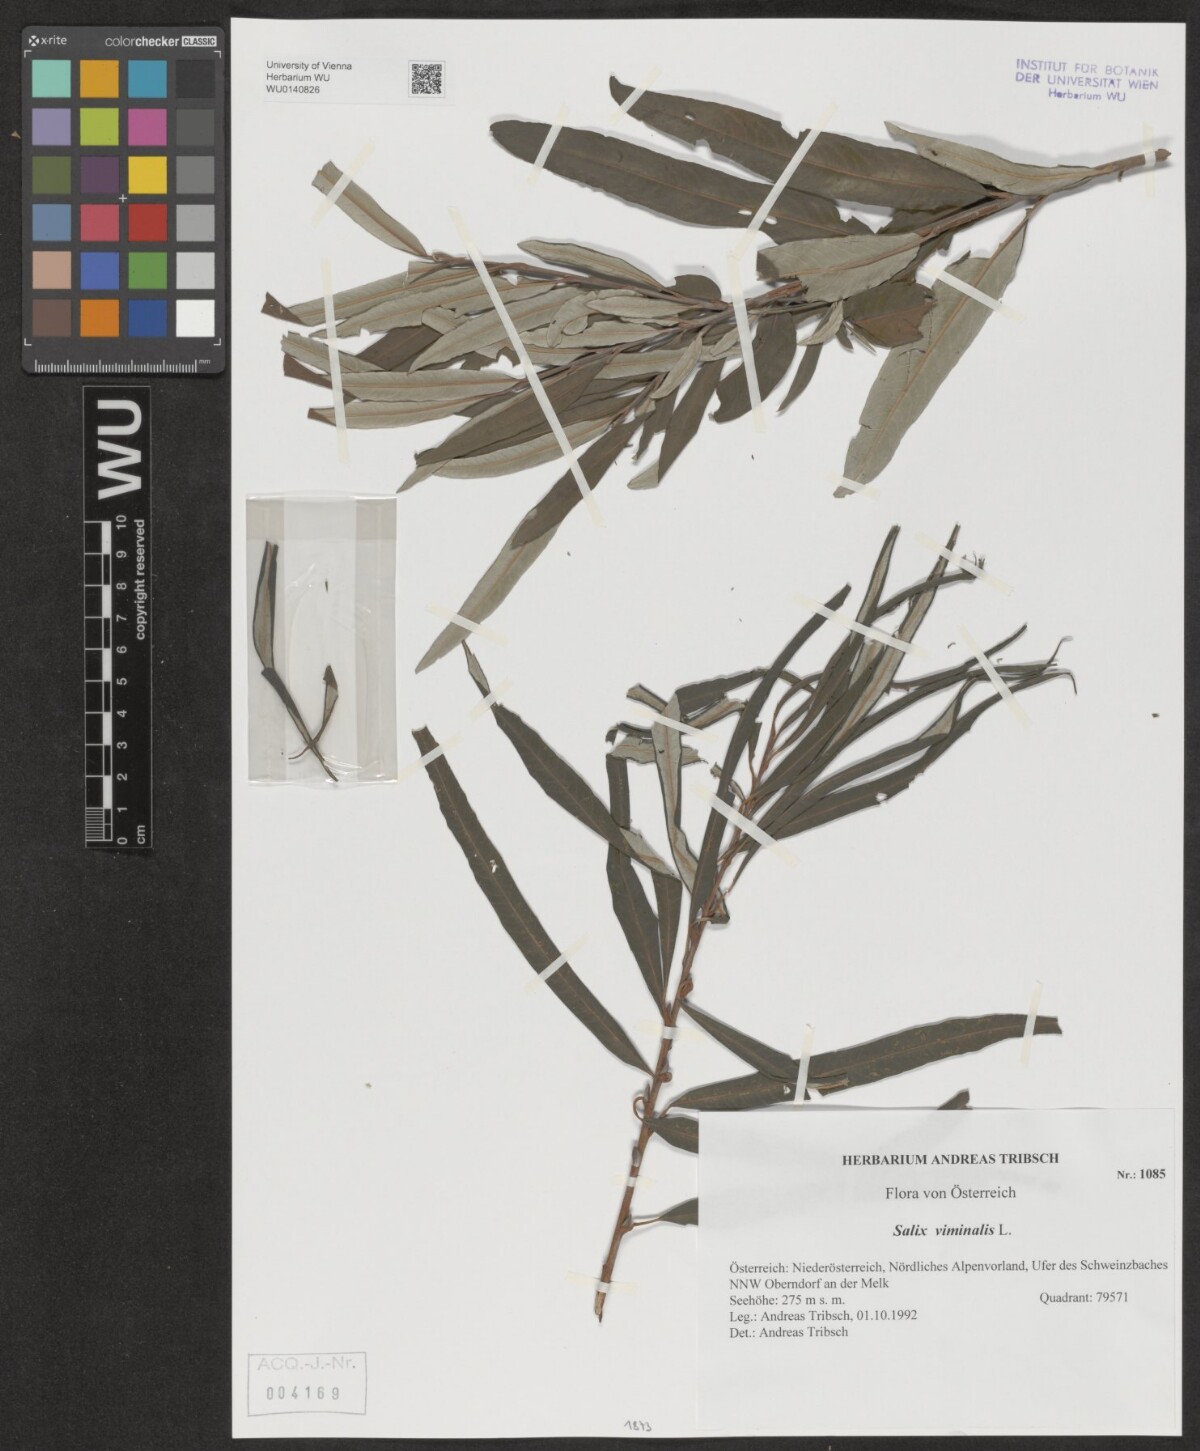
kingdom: Plantae
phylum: Tracheophyta
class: Magnoliopsida
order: Malpighiales
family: Salicaceae
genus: Salix
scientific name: Salix viminalis
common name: Osier
